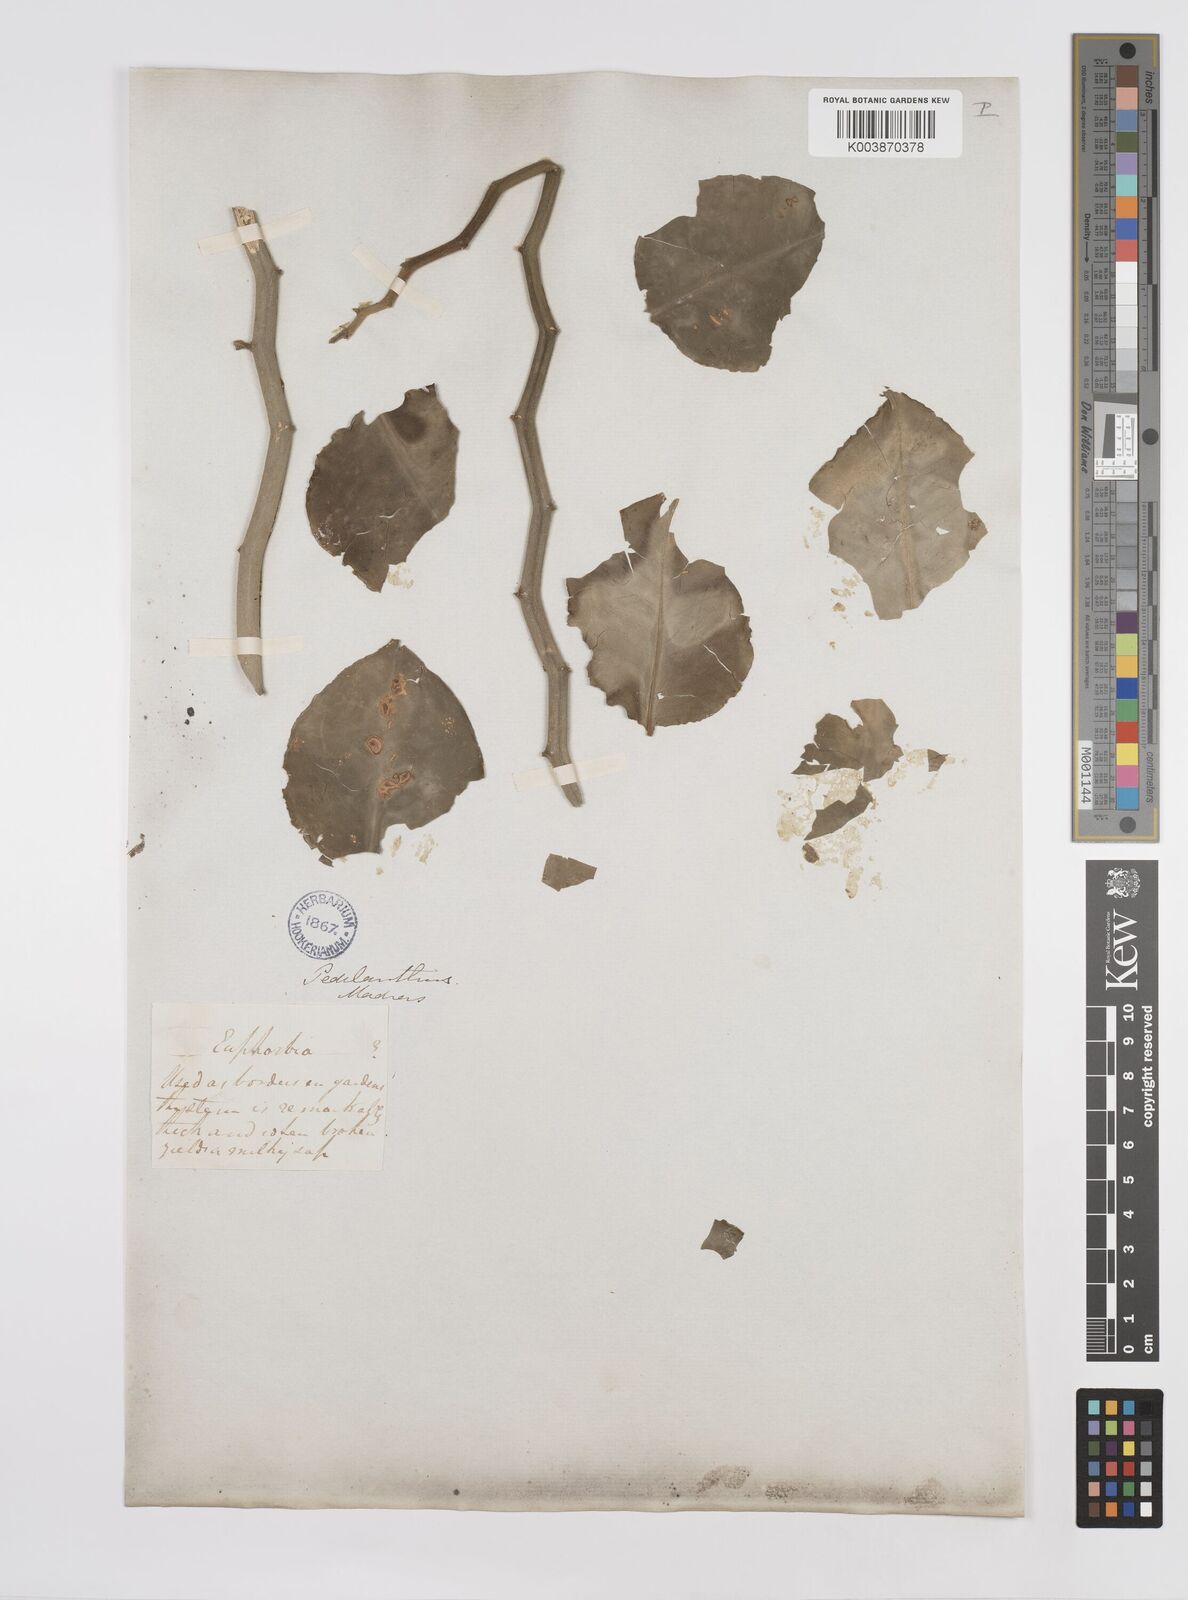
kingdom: Plantae
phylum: Tracheophyta
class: Magnoliopsida
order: Malpighiales
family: Euphorbiaceae
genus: Pedilanthus
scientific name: Pedilanthus
